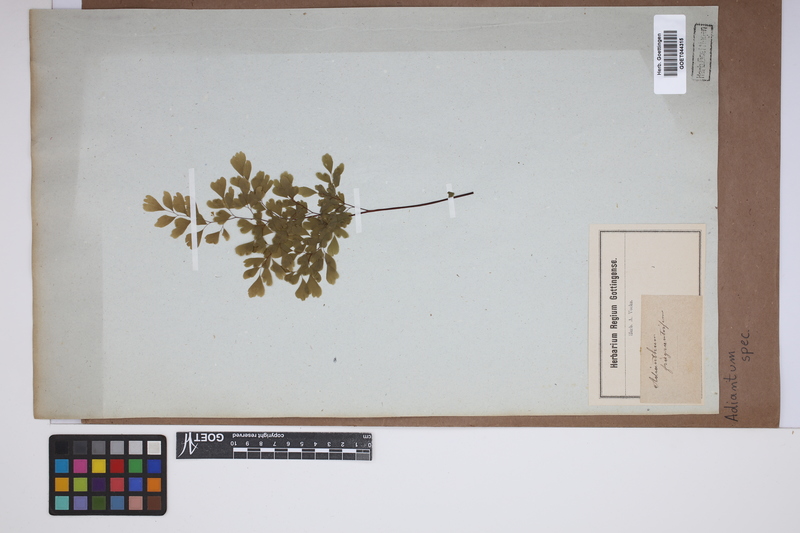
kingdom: Plantae
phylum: Tracheophyta
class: Polypodiopsida
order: Polypodiales
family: Pteridaceae
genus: Adiantum
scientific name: Adiantum
